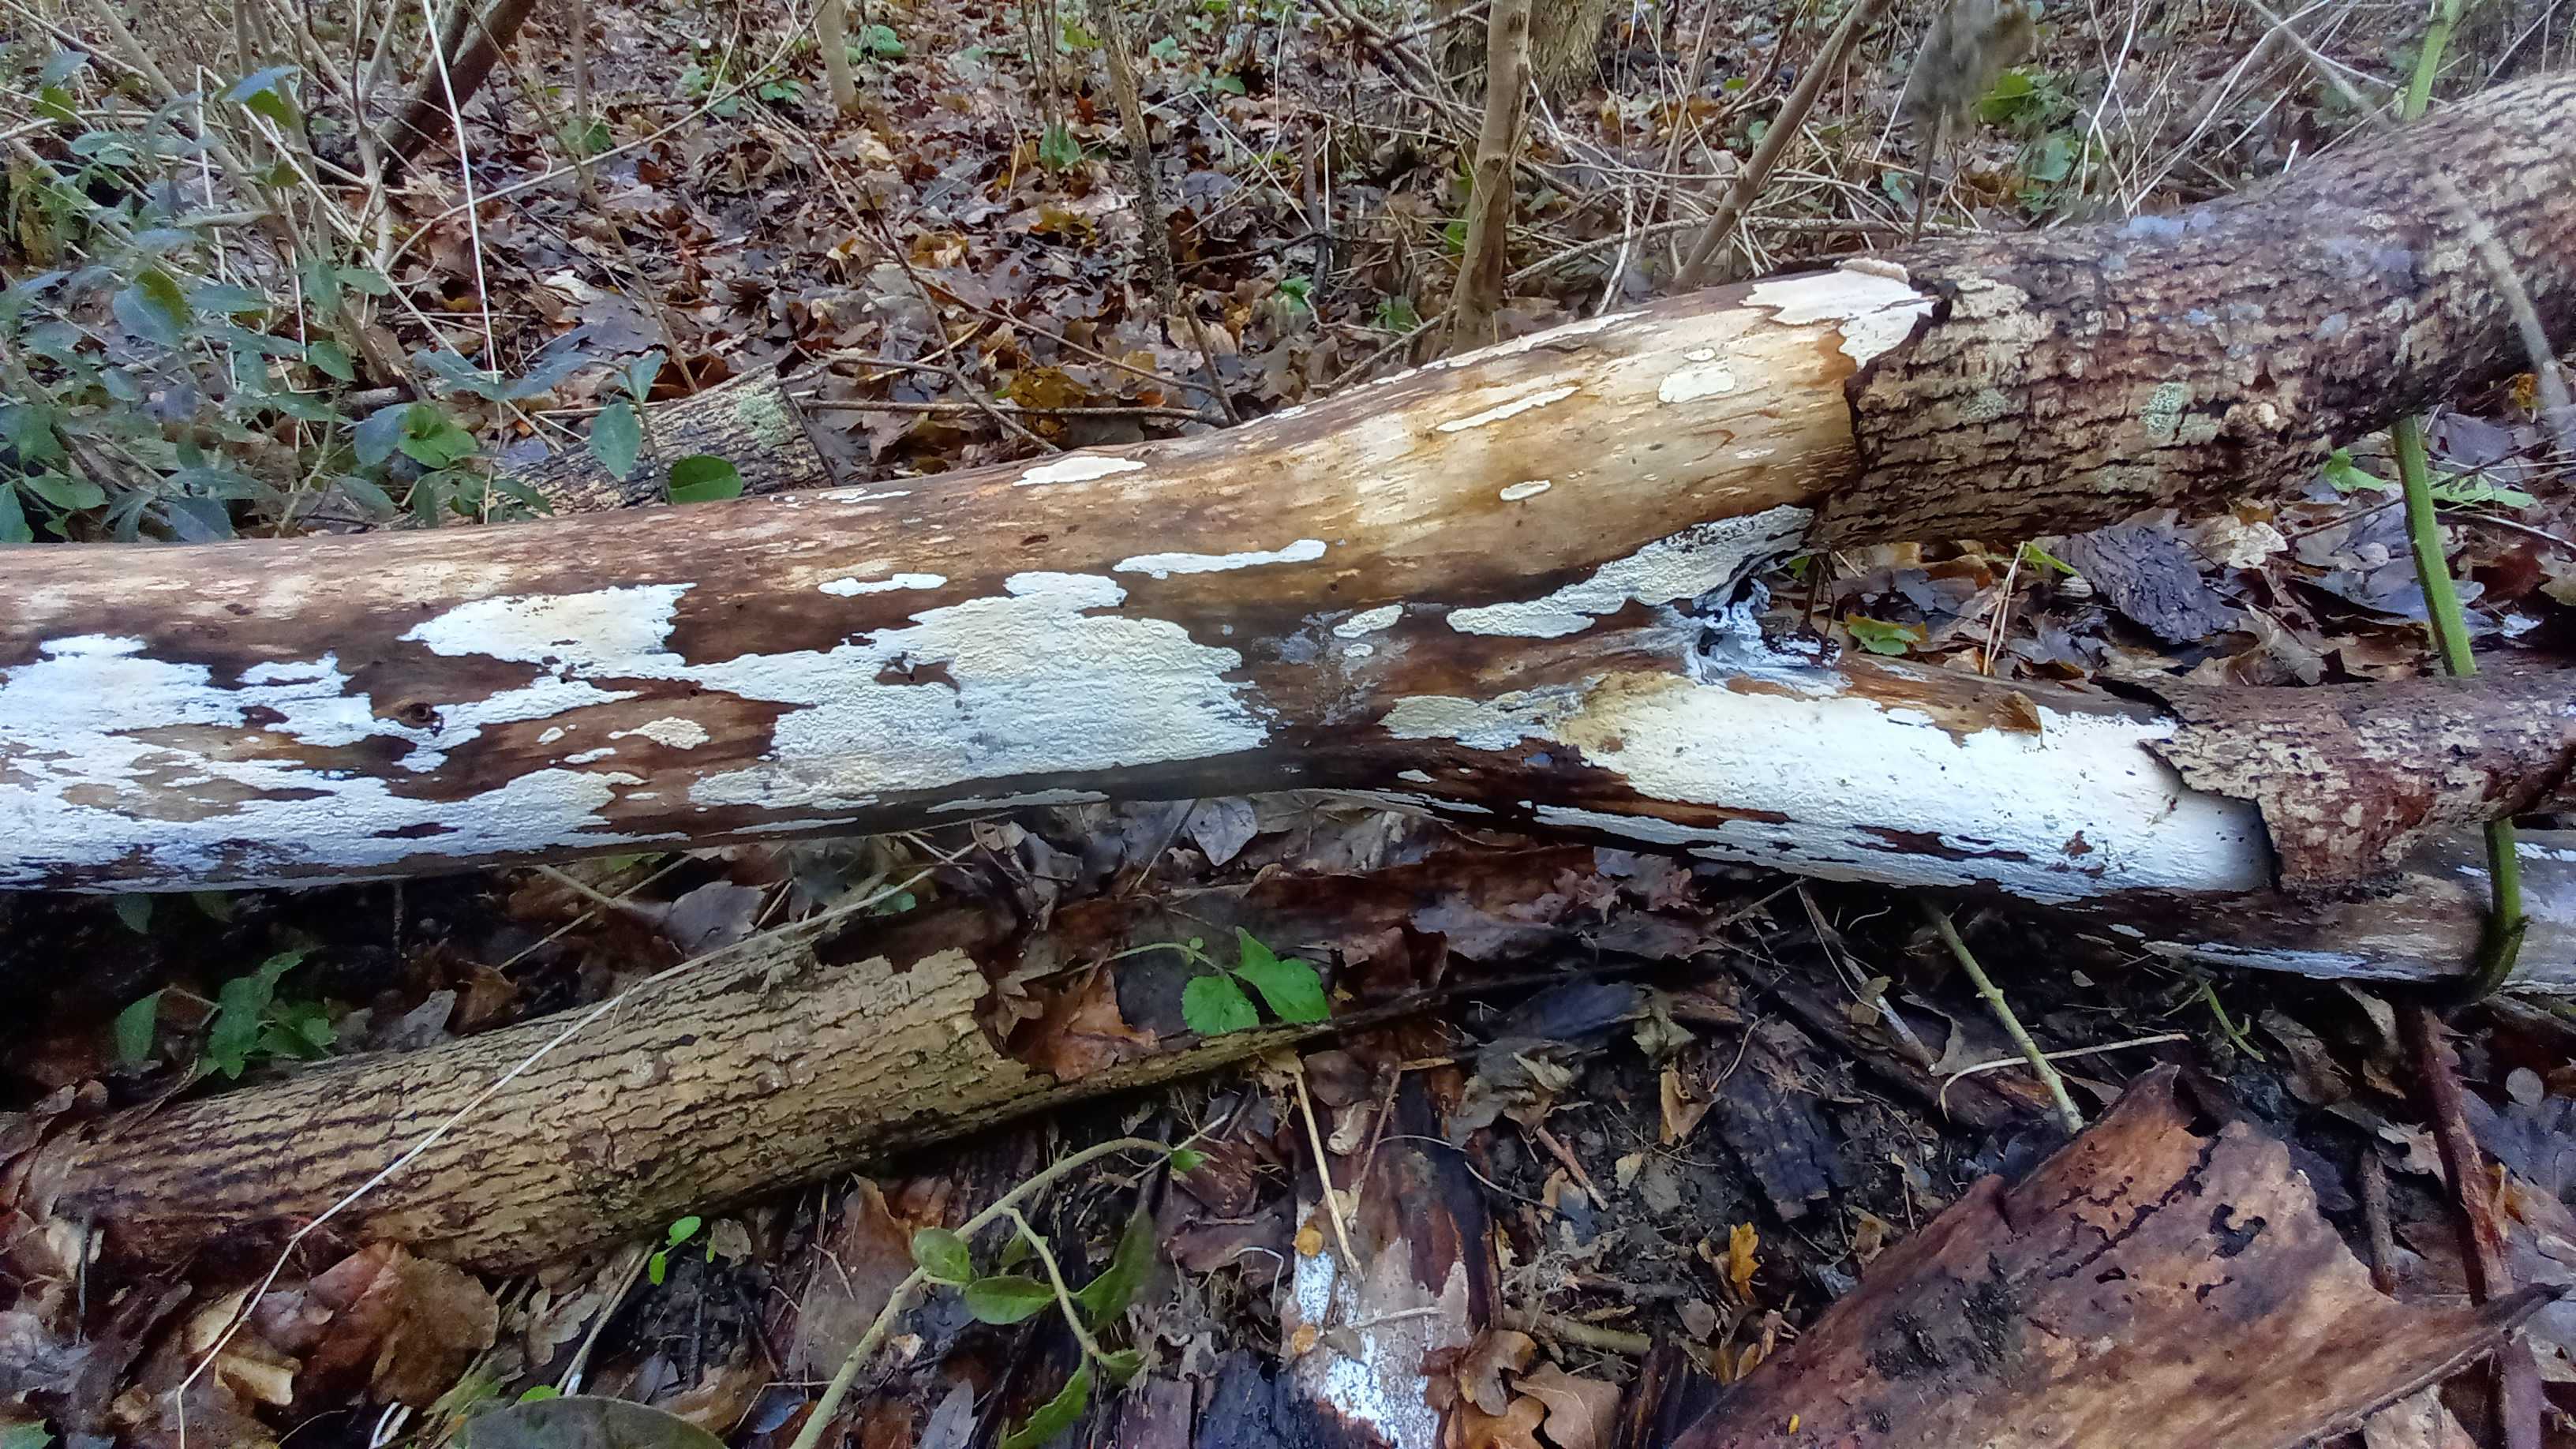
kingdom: Fungi
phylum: Basidiomycota
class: Agaricomycetes
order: Agaricales
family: Radulomycetaceae
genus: Radulomyces
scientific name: Radulomyces confluens
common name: glat naftalinskind
